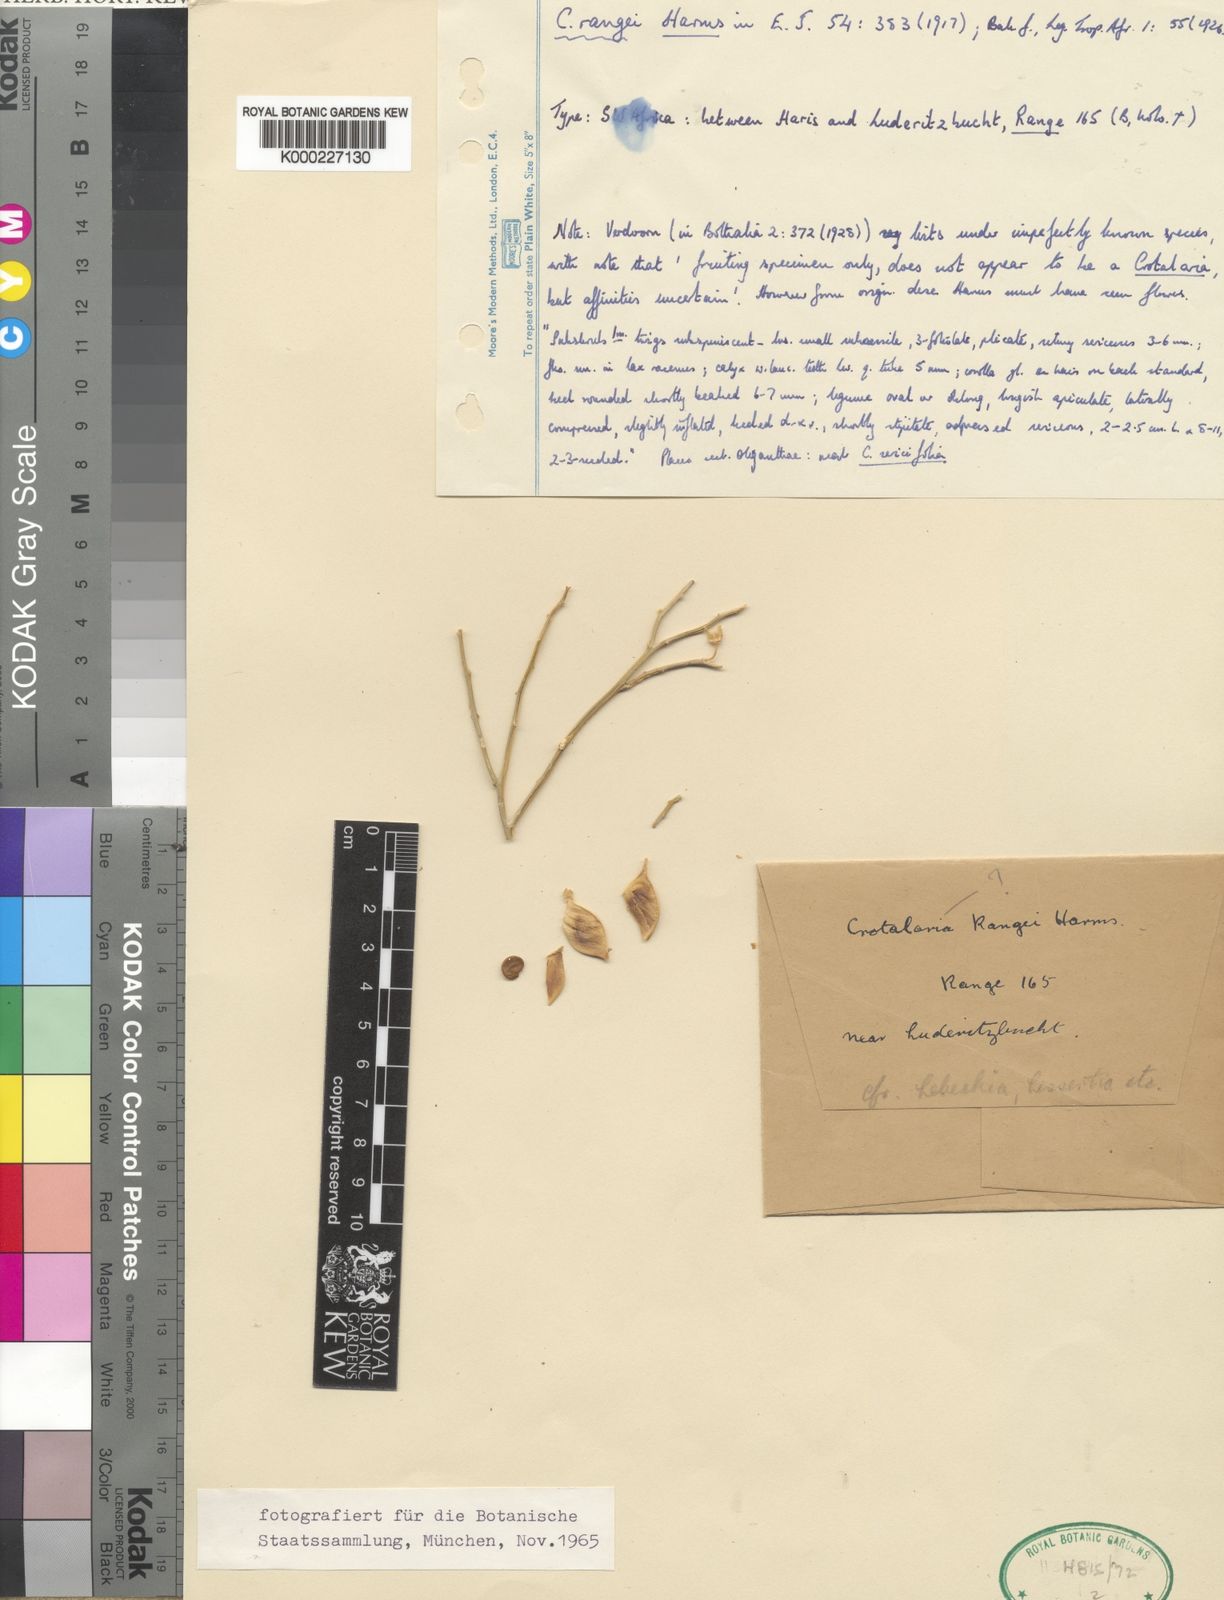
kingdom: Plantae
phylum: Tracheophyta
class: Magnoliopsida
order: Fabales
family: Fabaceae
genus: Crotalaria
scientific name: Crotalaria rangei
